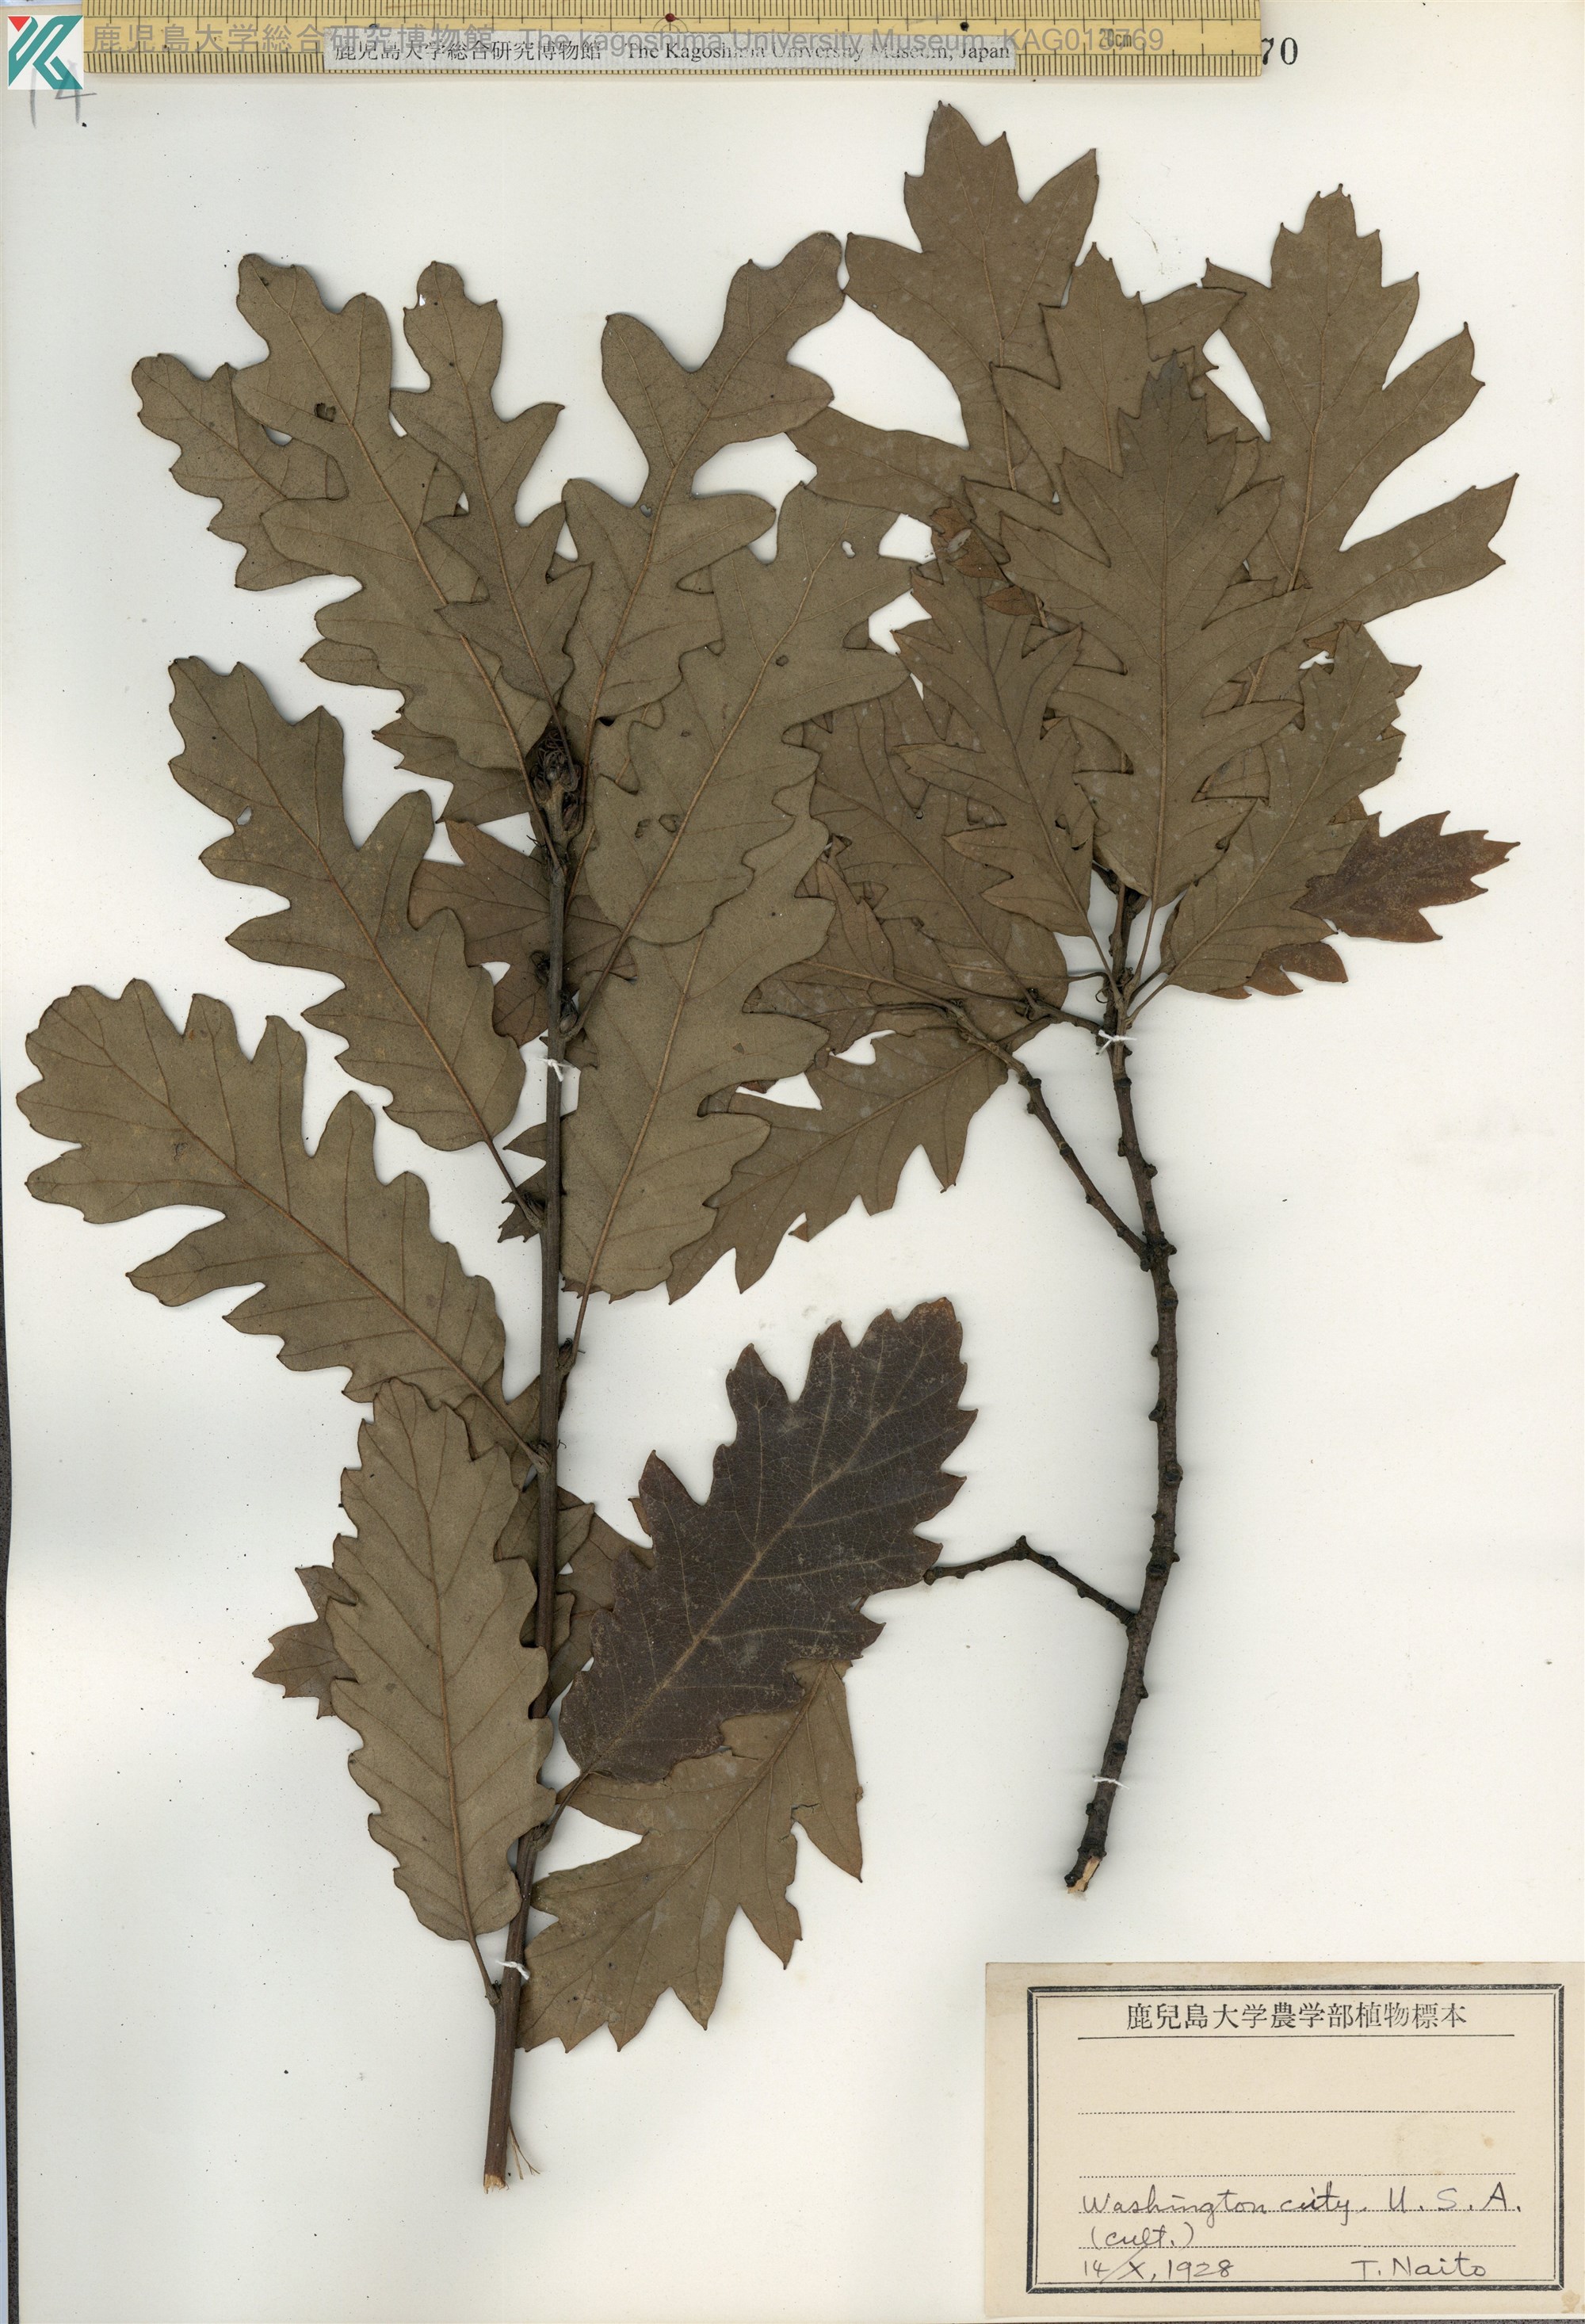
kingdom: Plantae
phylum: Tracheophyta
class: Magnoliopsida
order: Fagales
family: Fagaceae
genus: Quercus
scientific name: Quercus cerris
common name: Turkey oak
